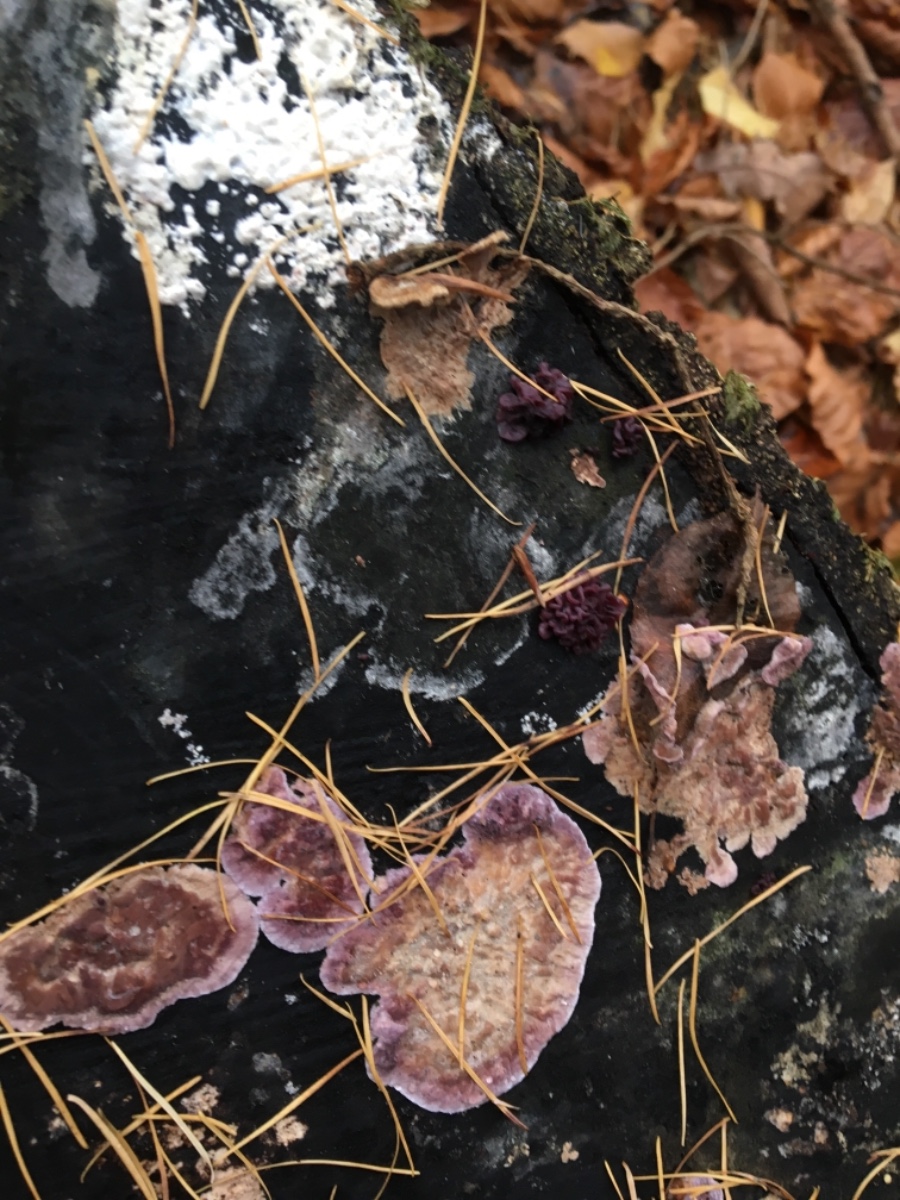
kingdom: Fungi
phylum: Basidiomycota
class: Agaricomycetes
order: Agaricales
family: Cyphellaceae
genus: Chondrostereum
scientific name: Chondrostereum purpureum
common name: purpurlædersvamp
